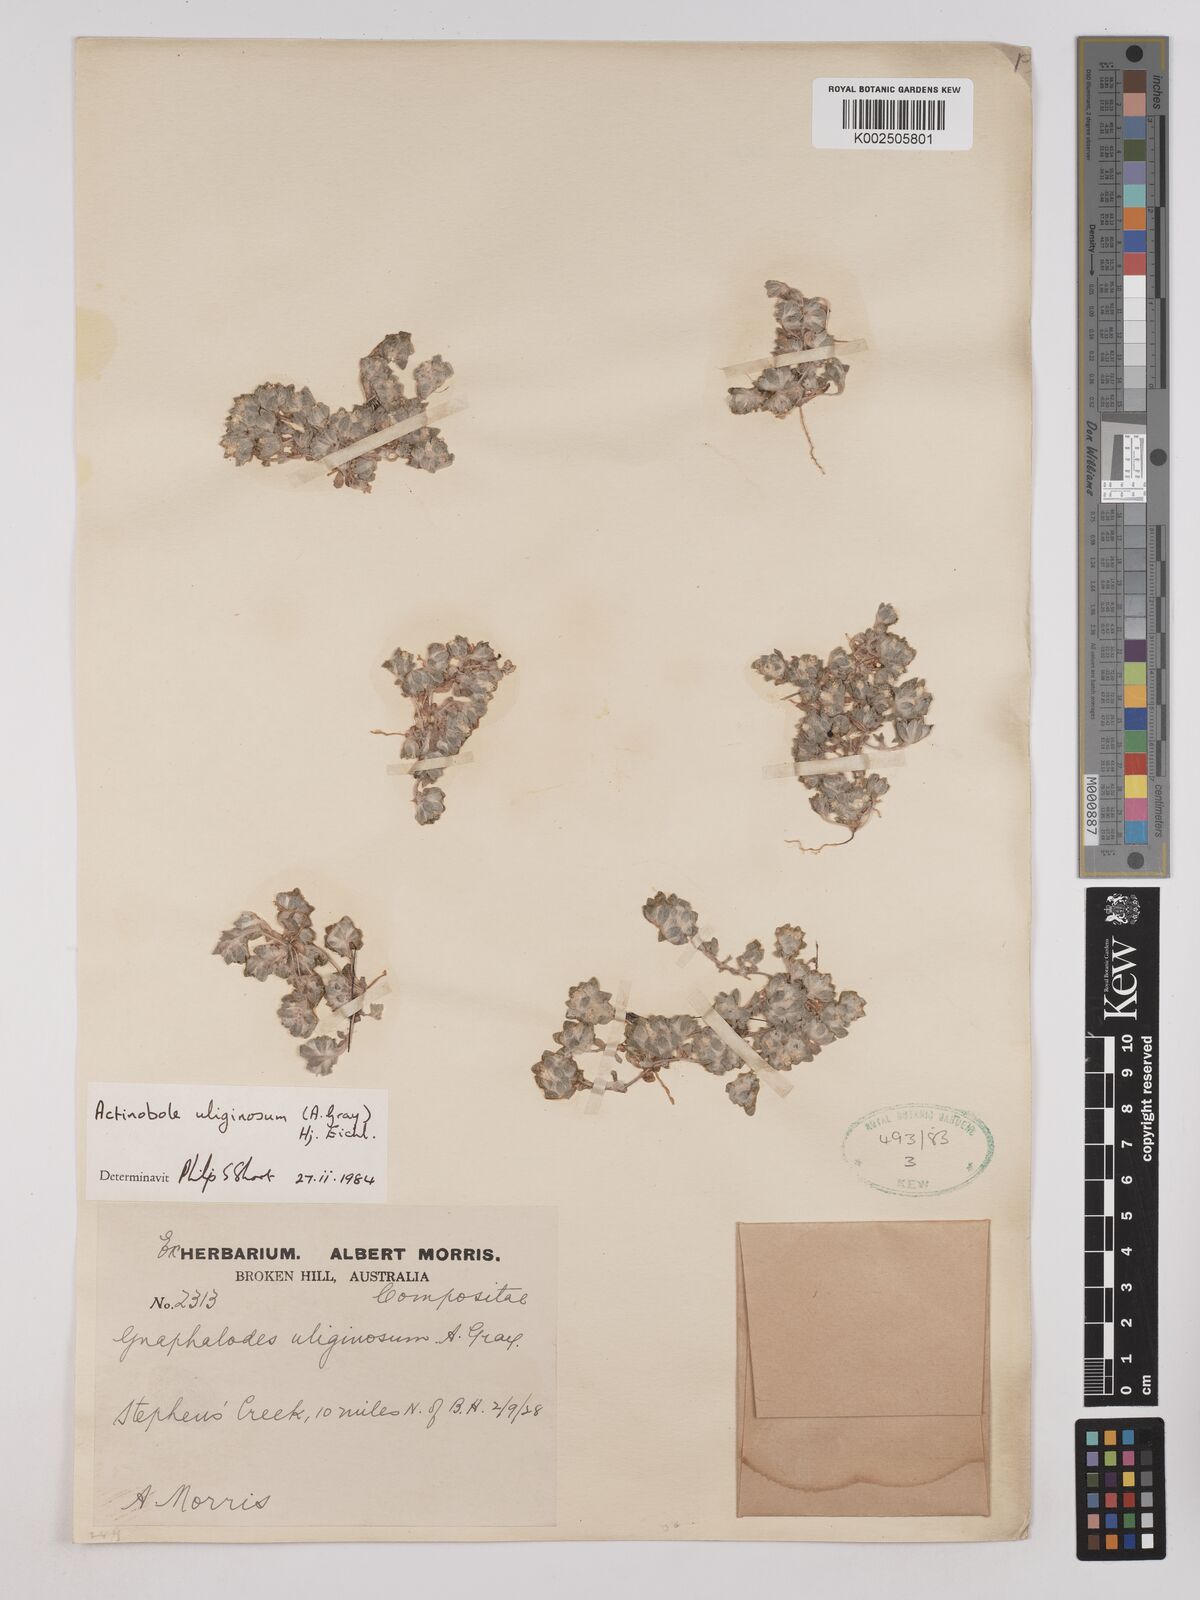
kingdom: Plantae
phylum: Tracheophyta
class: Magnoliopsida
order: Asterales
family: Asteraceae
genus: Actinobole
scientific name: Actinobole uliginosum
